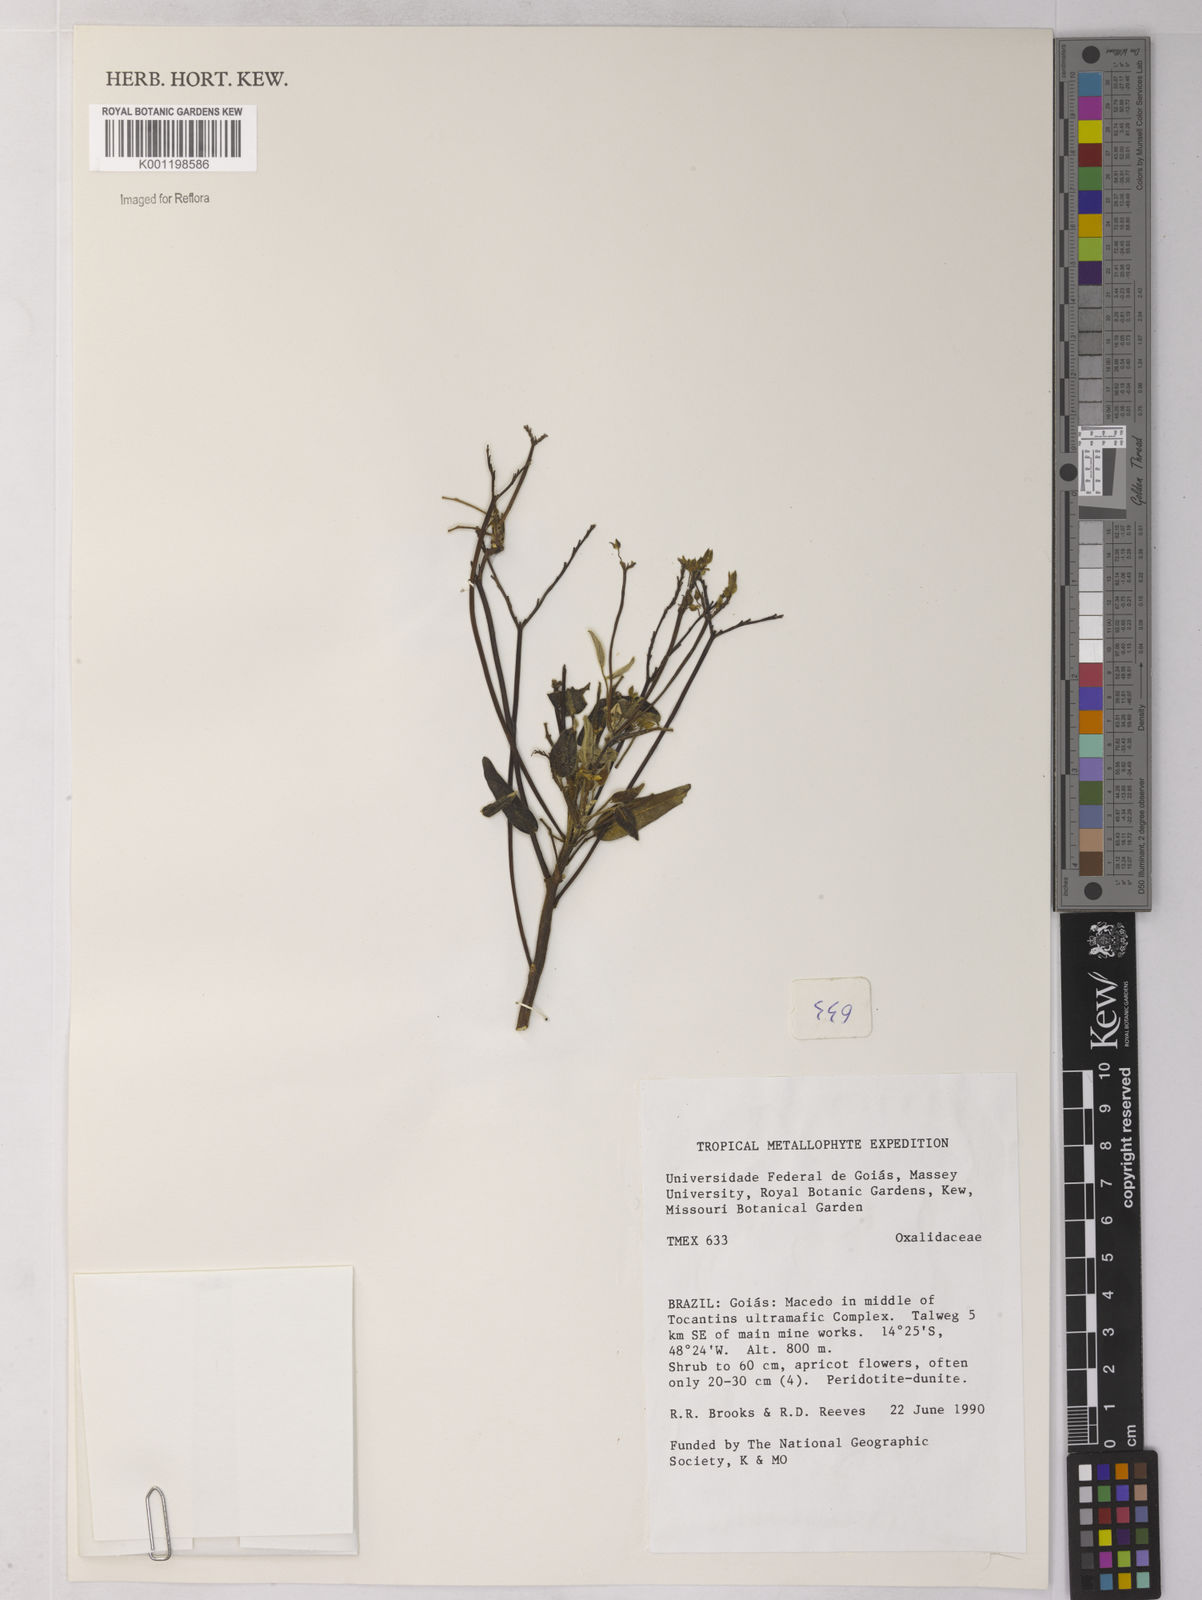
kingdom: Plantae
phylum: Tracheophyta
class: Magnoliopsida
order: Oxalidales
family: Oxalidaceae
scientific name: Oxalidaceae
